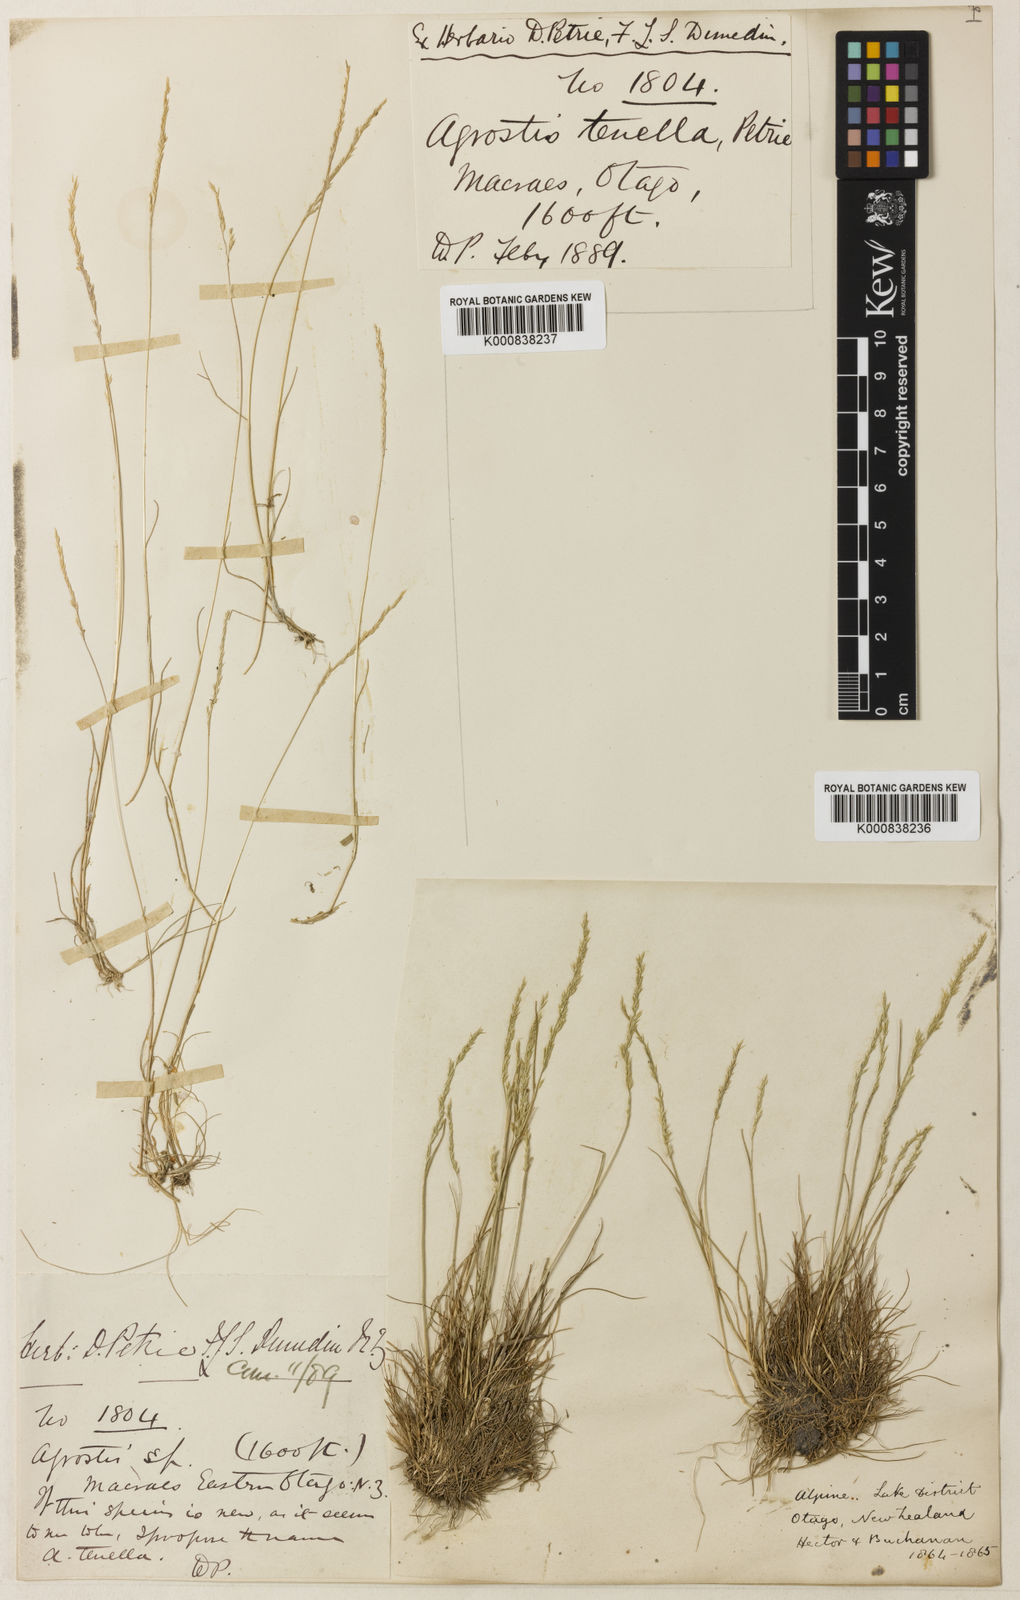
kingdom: Plantae
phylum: Tracheophyta
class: Liliopsida
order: Poales
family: Poaceae
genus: Agrostis
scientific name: Agrostis gigantea
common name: Black bent
